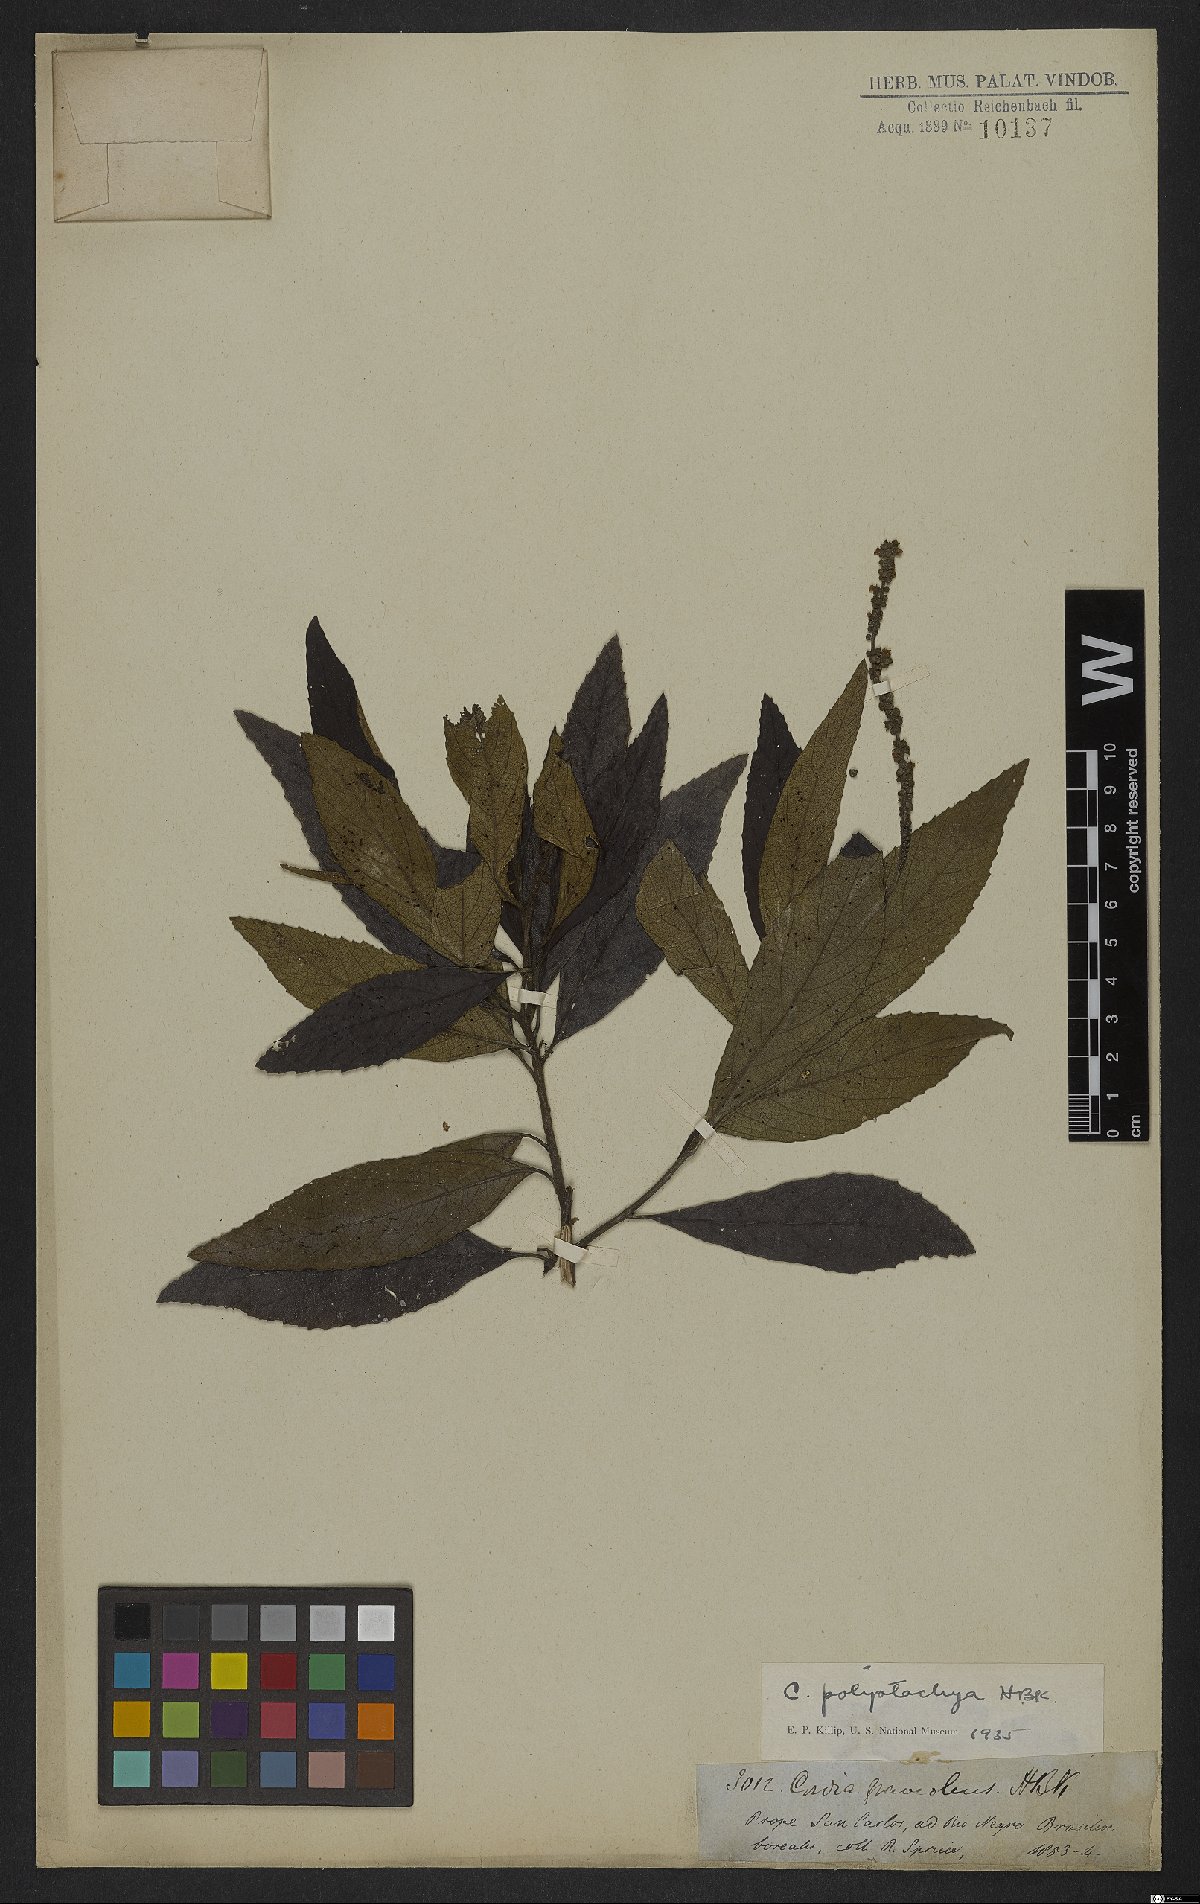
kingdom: Plantae
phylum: Tracheophyta
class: Magnoliopsida
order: Boraginales
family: Cordiaceae
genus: Varronia
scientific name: Varronia curassavica
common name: Black sage
